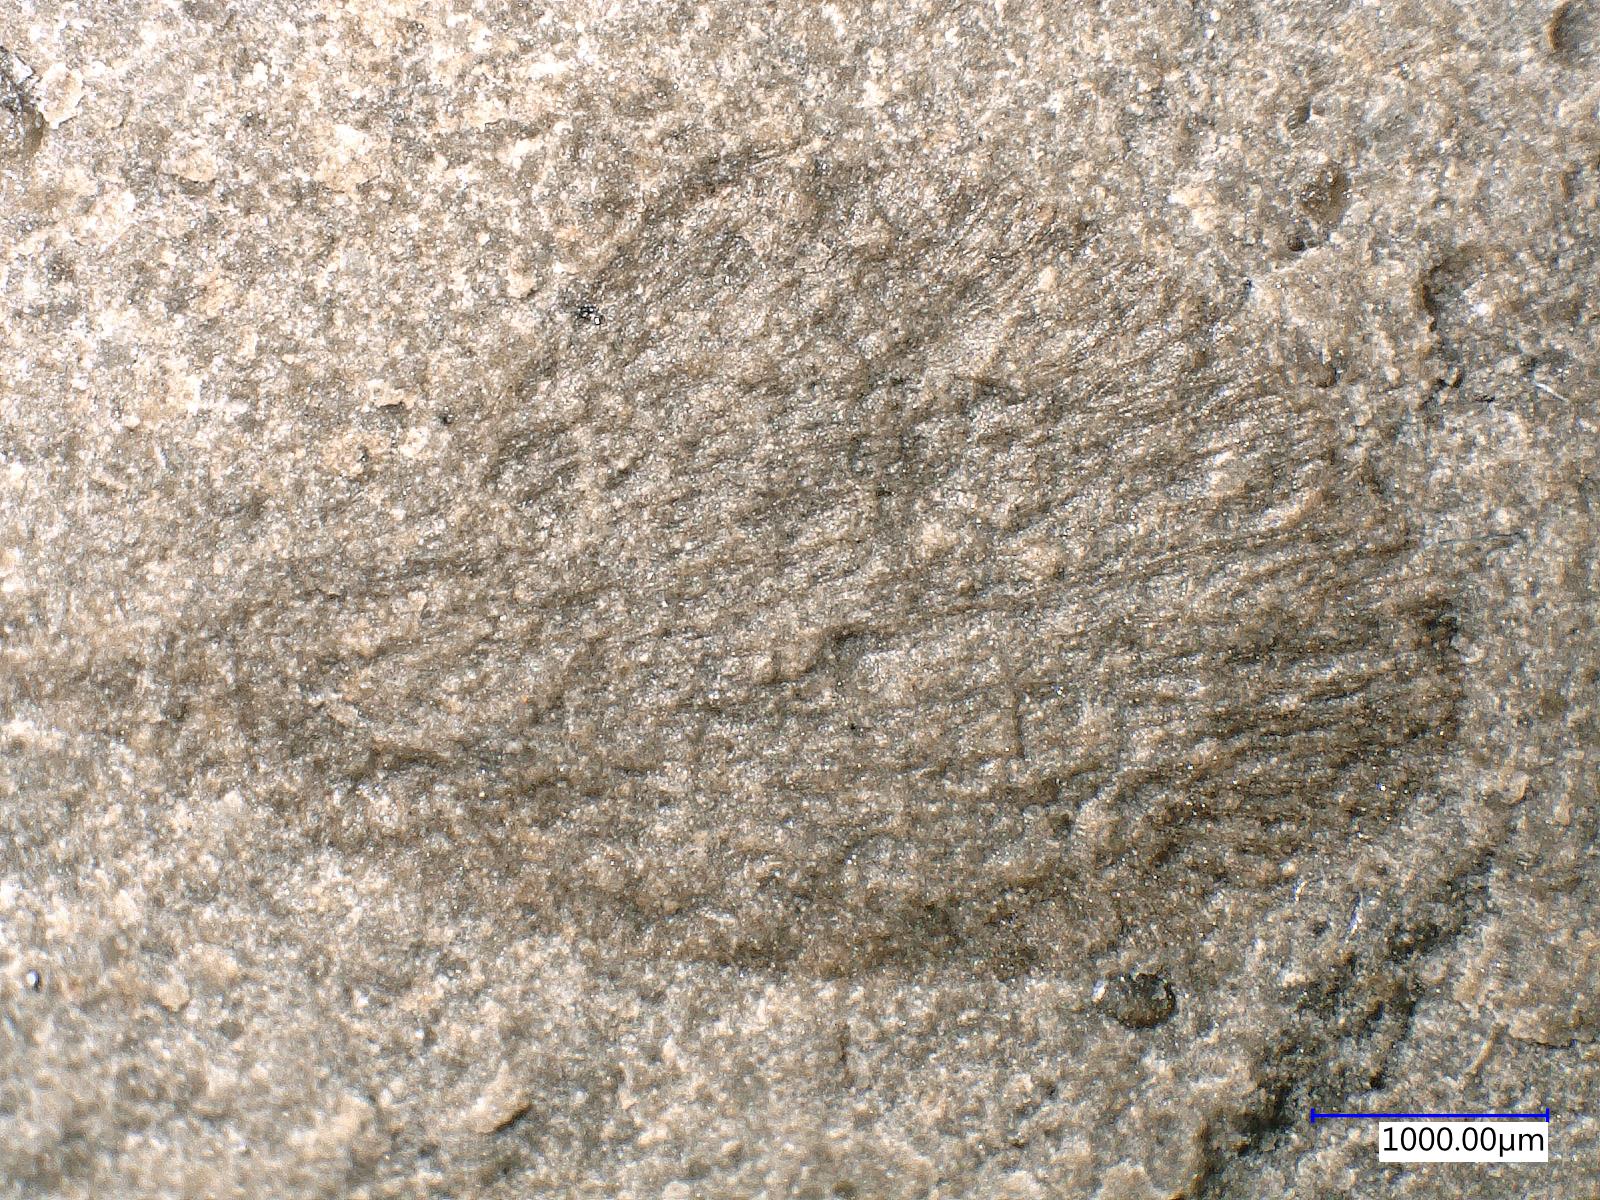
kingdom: Animalia
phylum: Arthropoda
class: Insecta
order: Neuroptera
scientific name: Neuroptera
